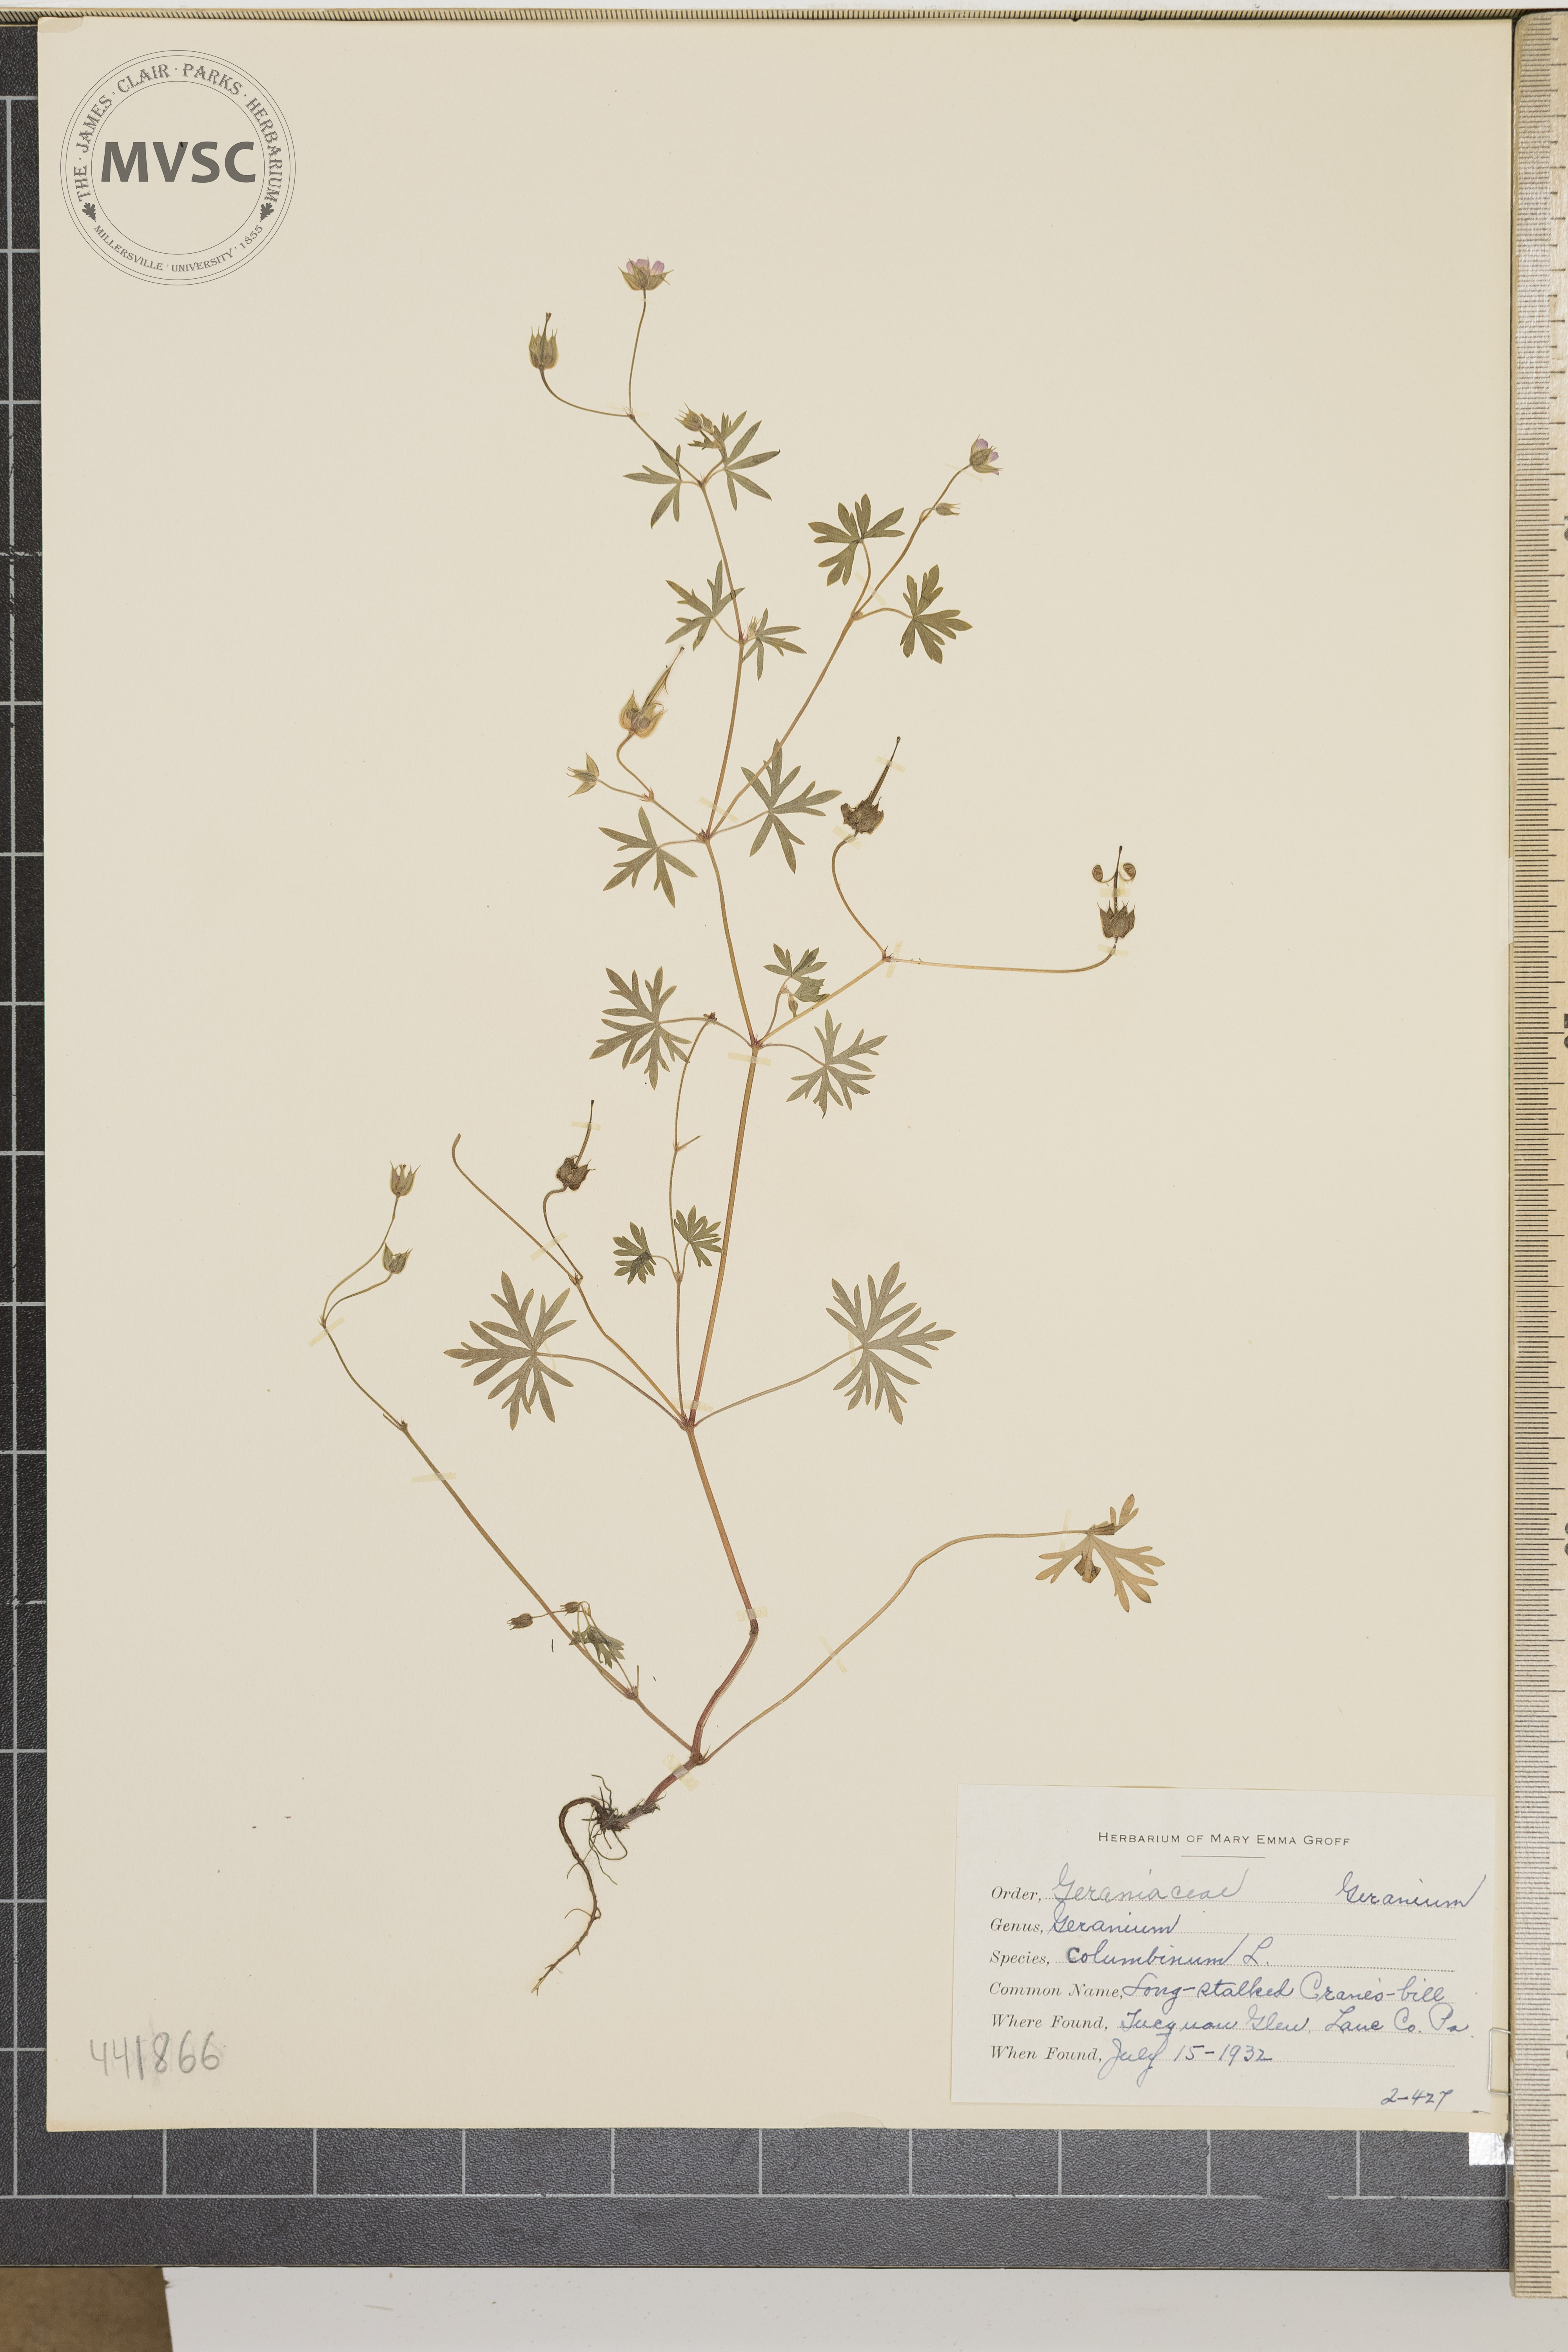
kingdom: Plantae
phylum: Tracheophyta
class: Magnoliopsida
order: Geraniales
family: Geraniaceae
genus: Geranium
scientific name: Geranium columbinum
